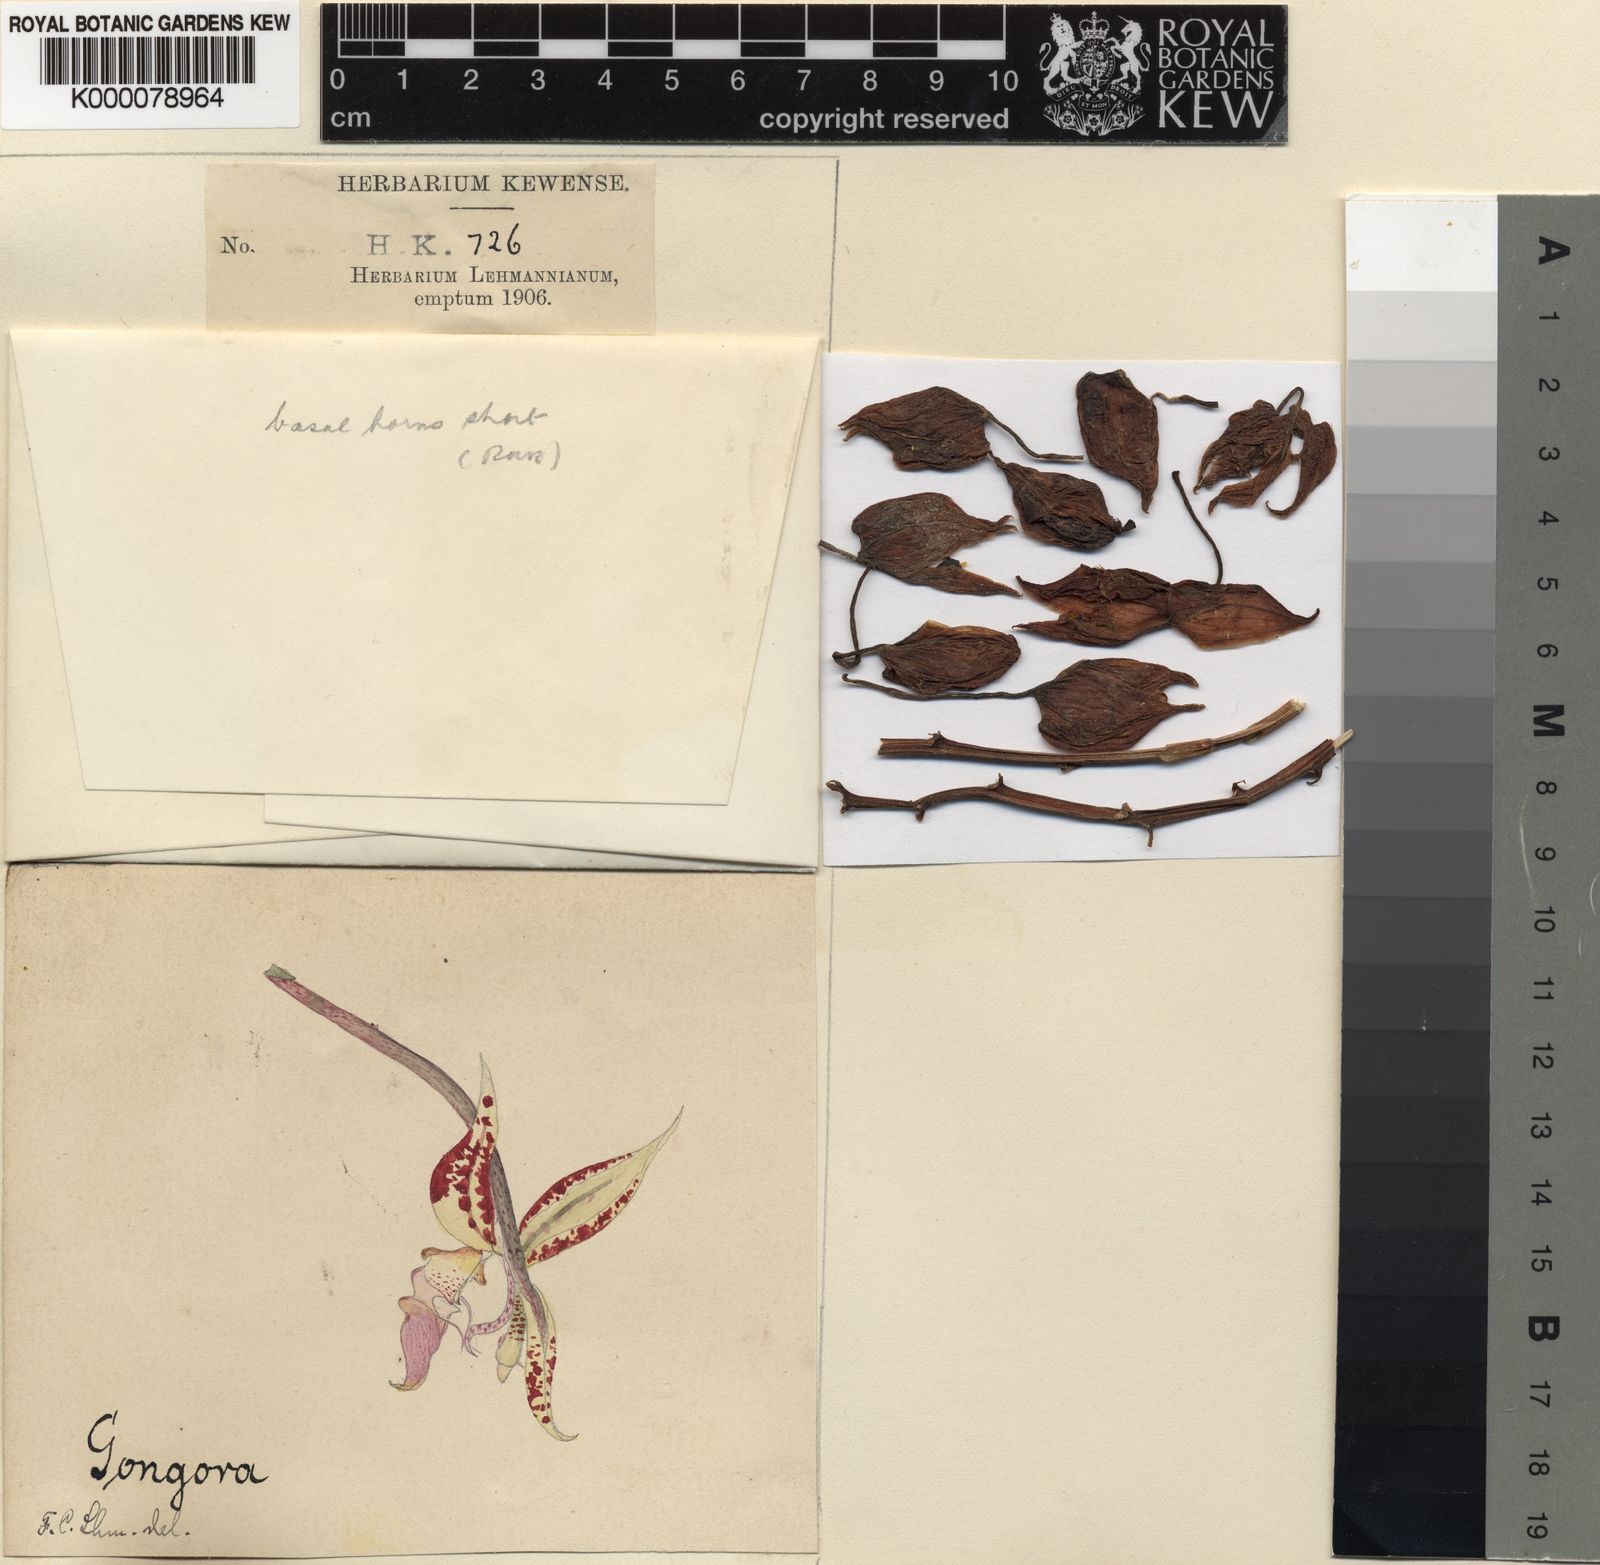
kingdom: Plantae
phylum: Tracheophyta
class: Liliopsida
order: Asparagales
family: Orchidaceae
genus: Gongora
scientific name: Gongora
